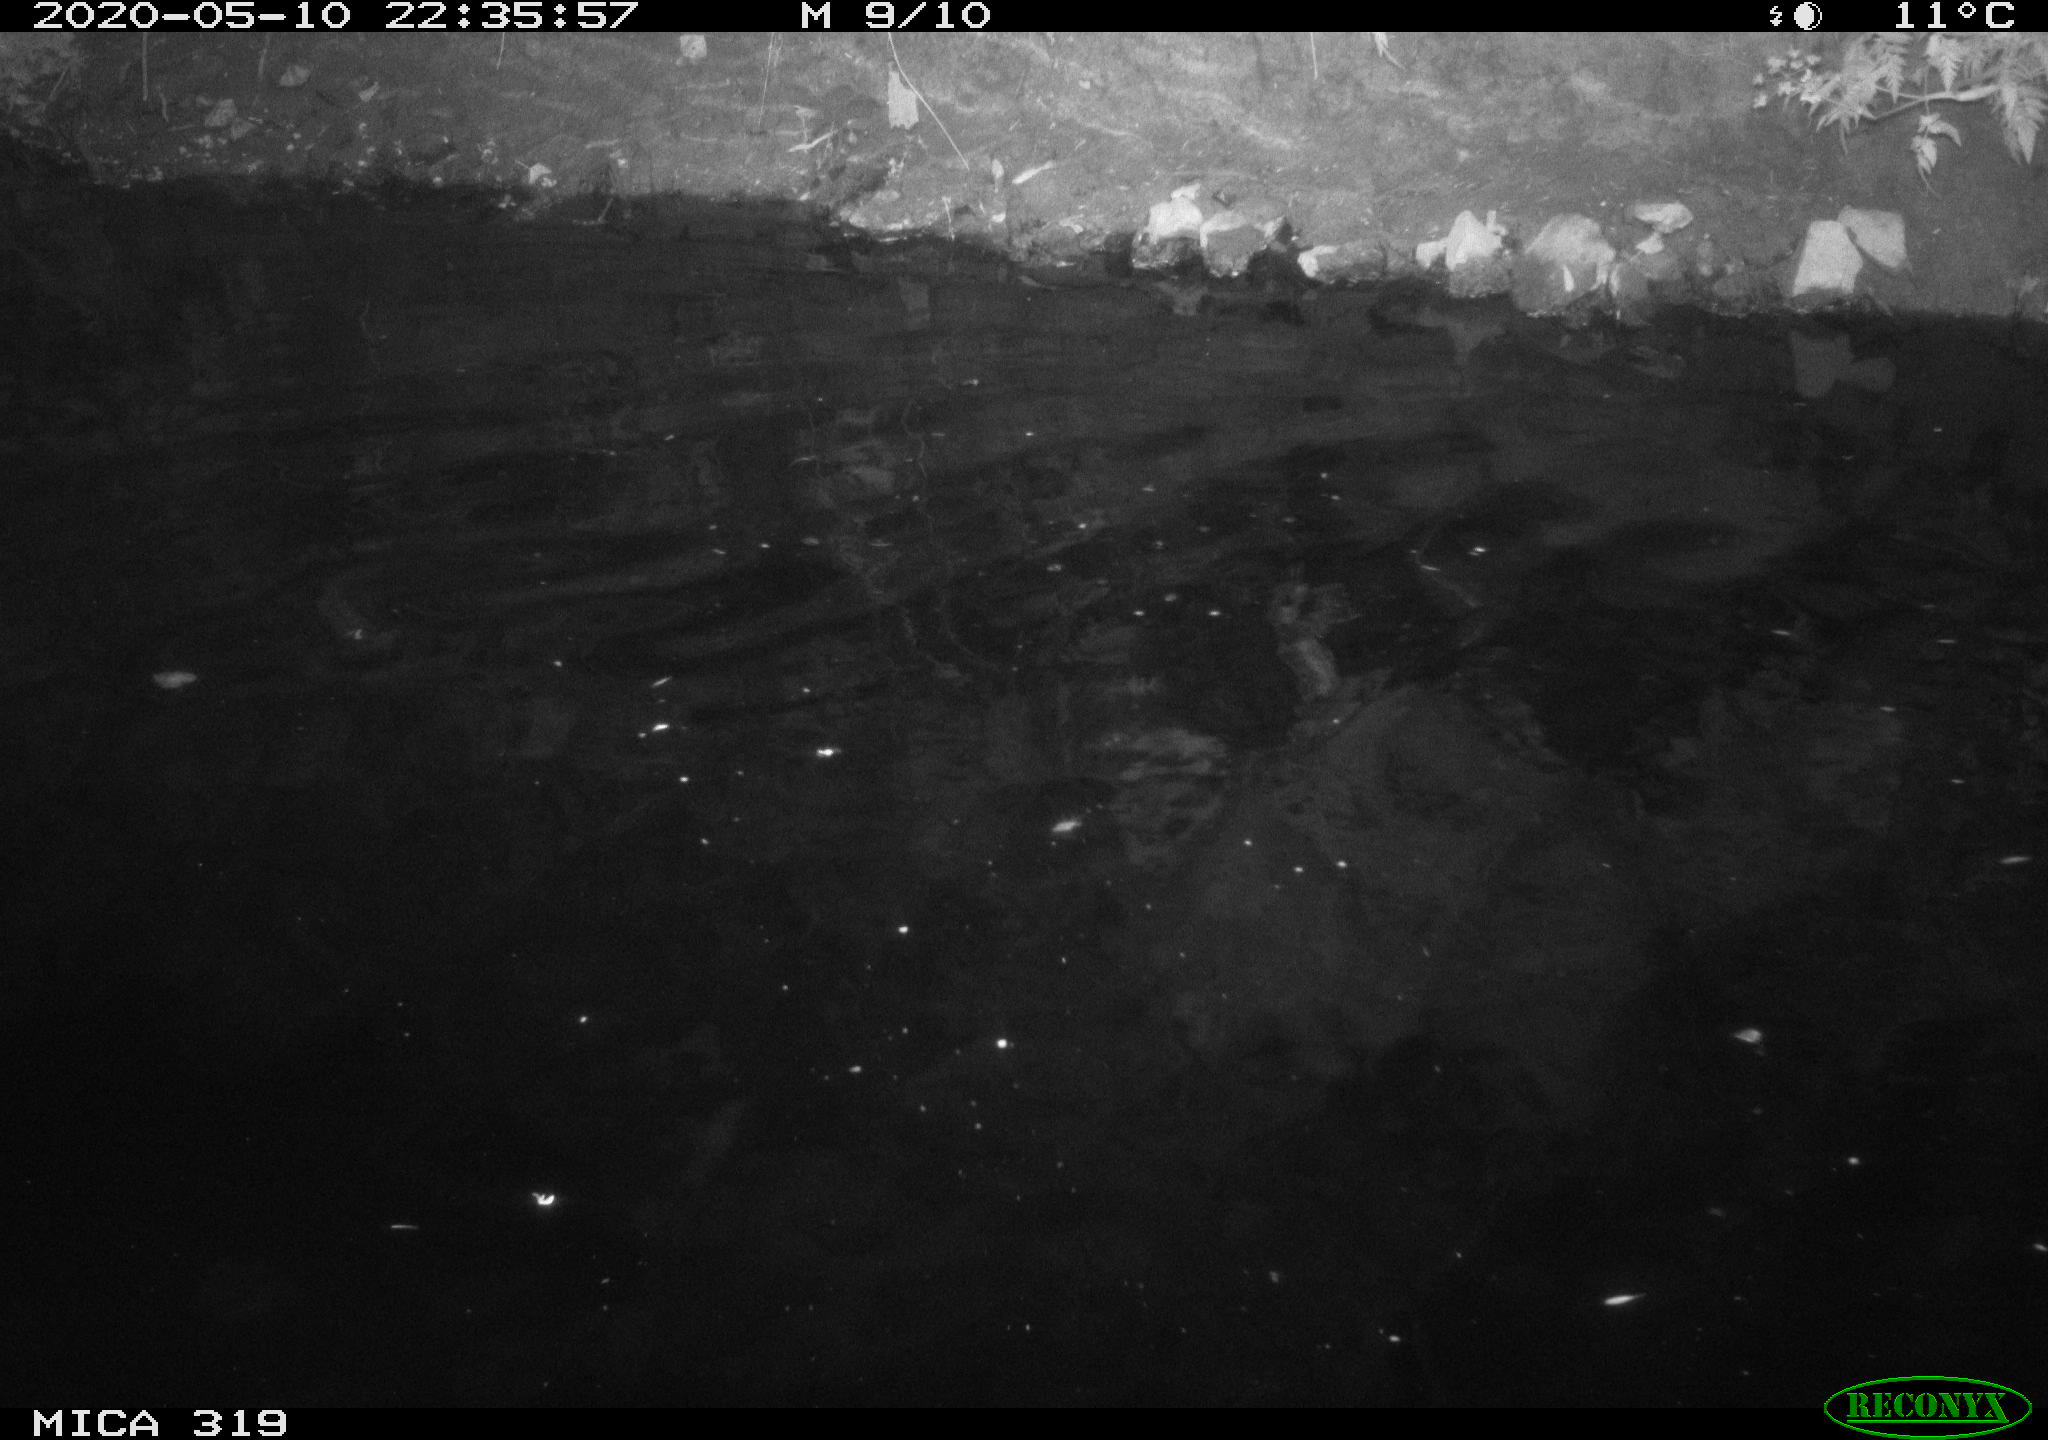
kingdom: Animalia
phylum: Chordata
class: Aves
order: Anseriformes
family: Anatidae
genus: Anas
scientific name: Anas platyrhynchos
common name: Mallard
